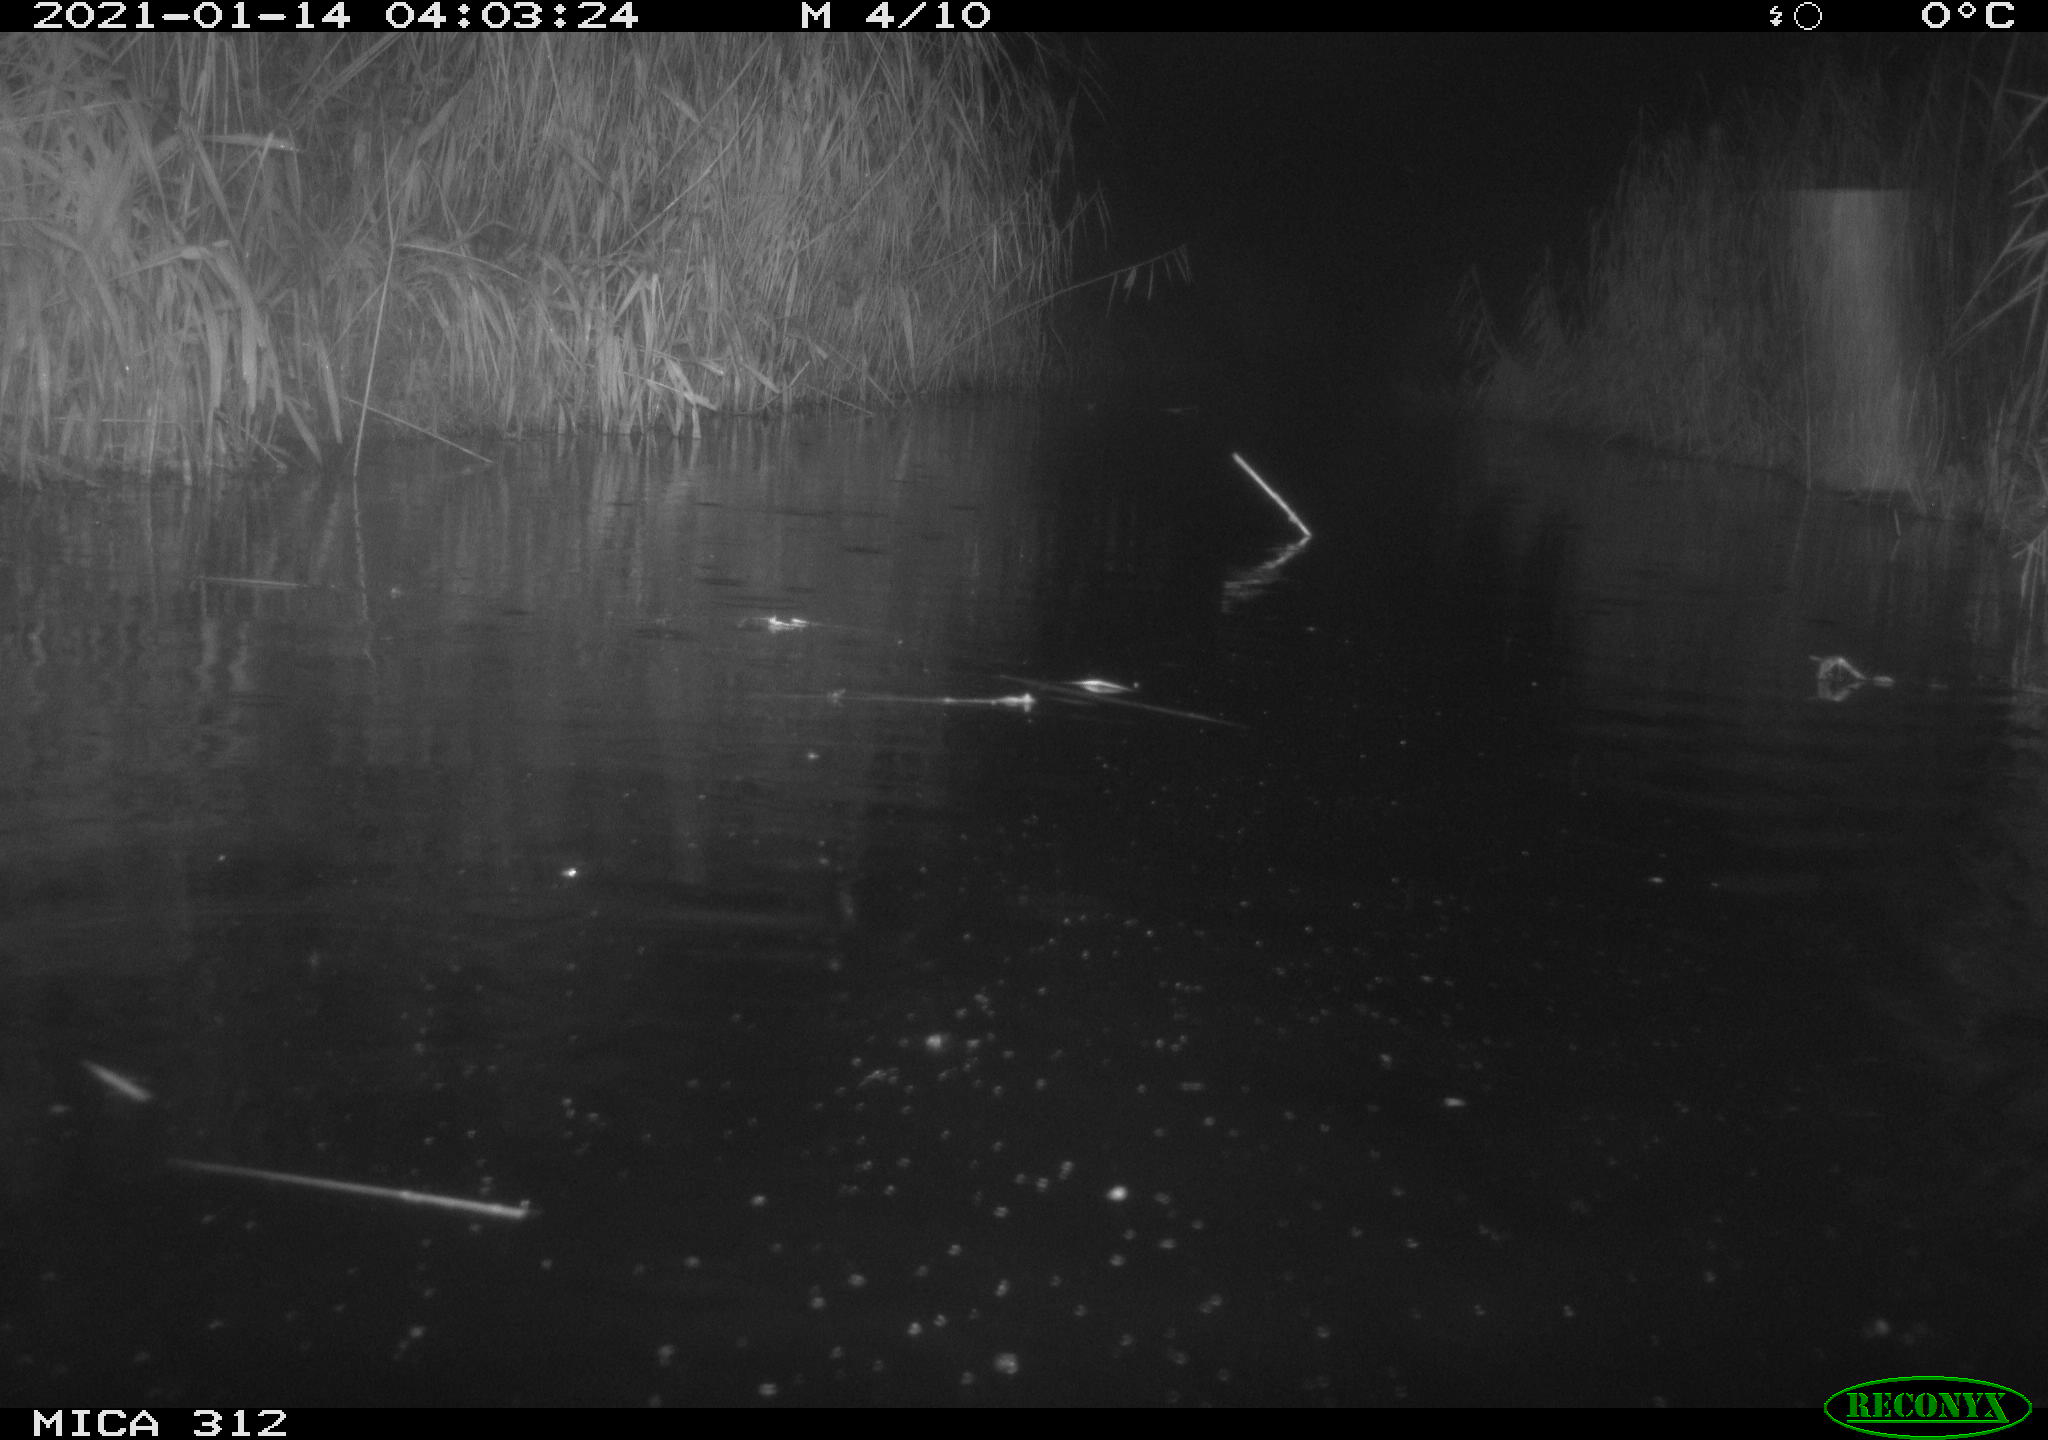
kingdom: Animalia
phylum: Chordata
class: Mammalia
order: Rodentia
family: Muridae
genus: Rattus
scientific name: Rattus norvegicus
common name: Brown rat
